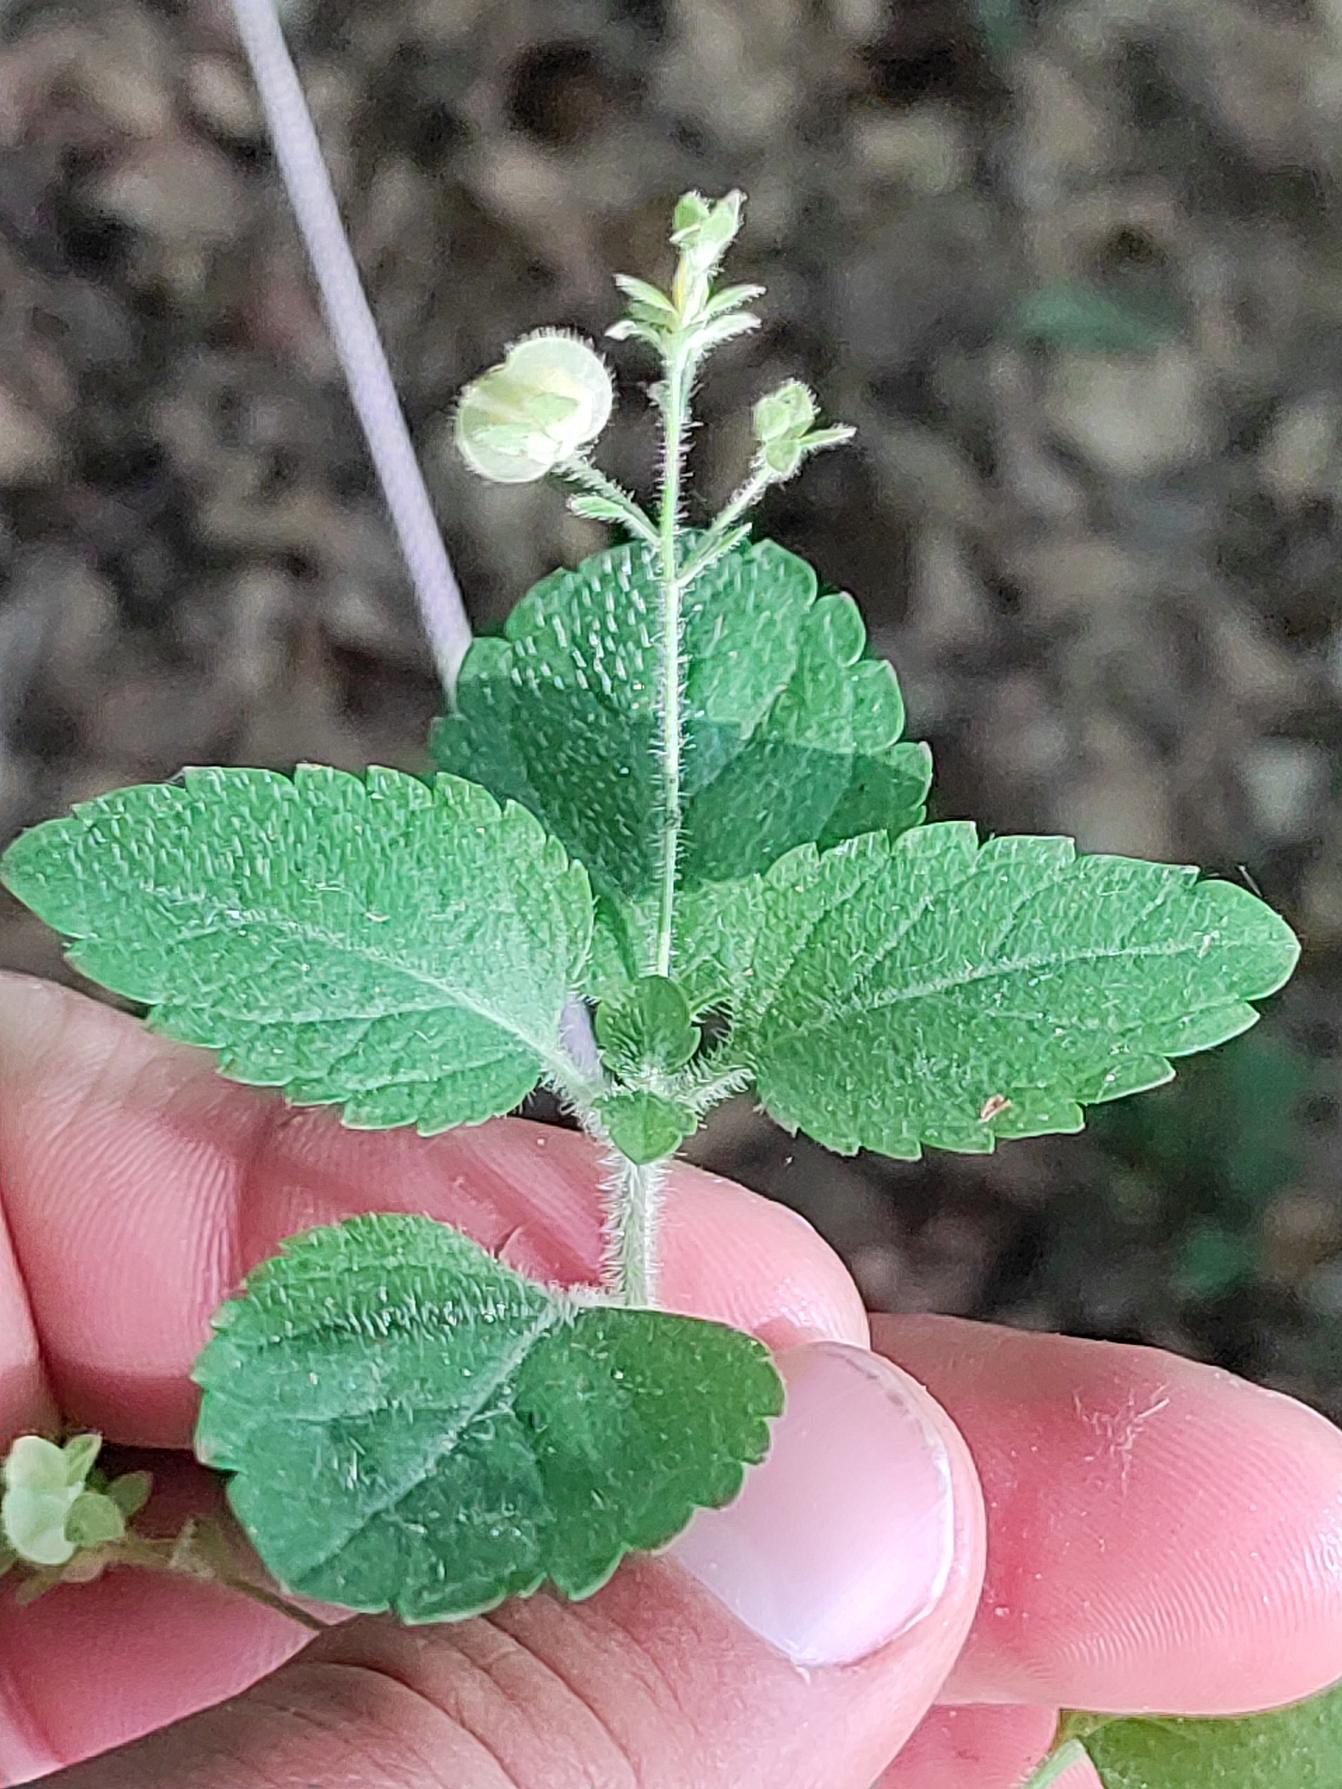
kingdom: Plantae
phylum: Tracheophyta
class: Magnoliopsida
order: Lamiales
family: Plantaginaceae
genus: Veronica
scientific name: Veronica montana
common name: Bjerg-ærenpris
